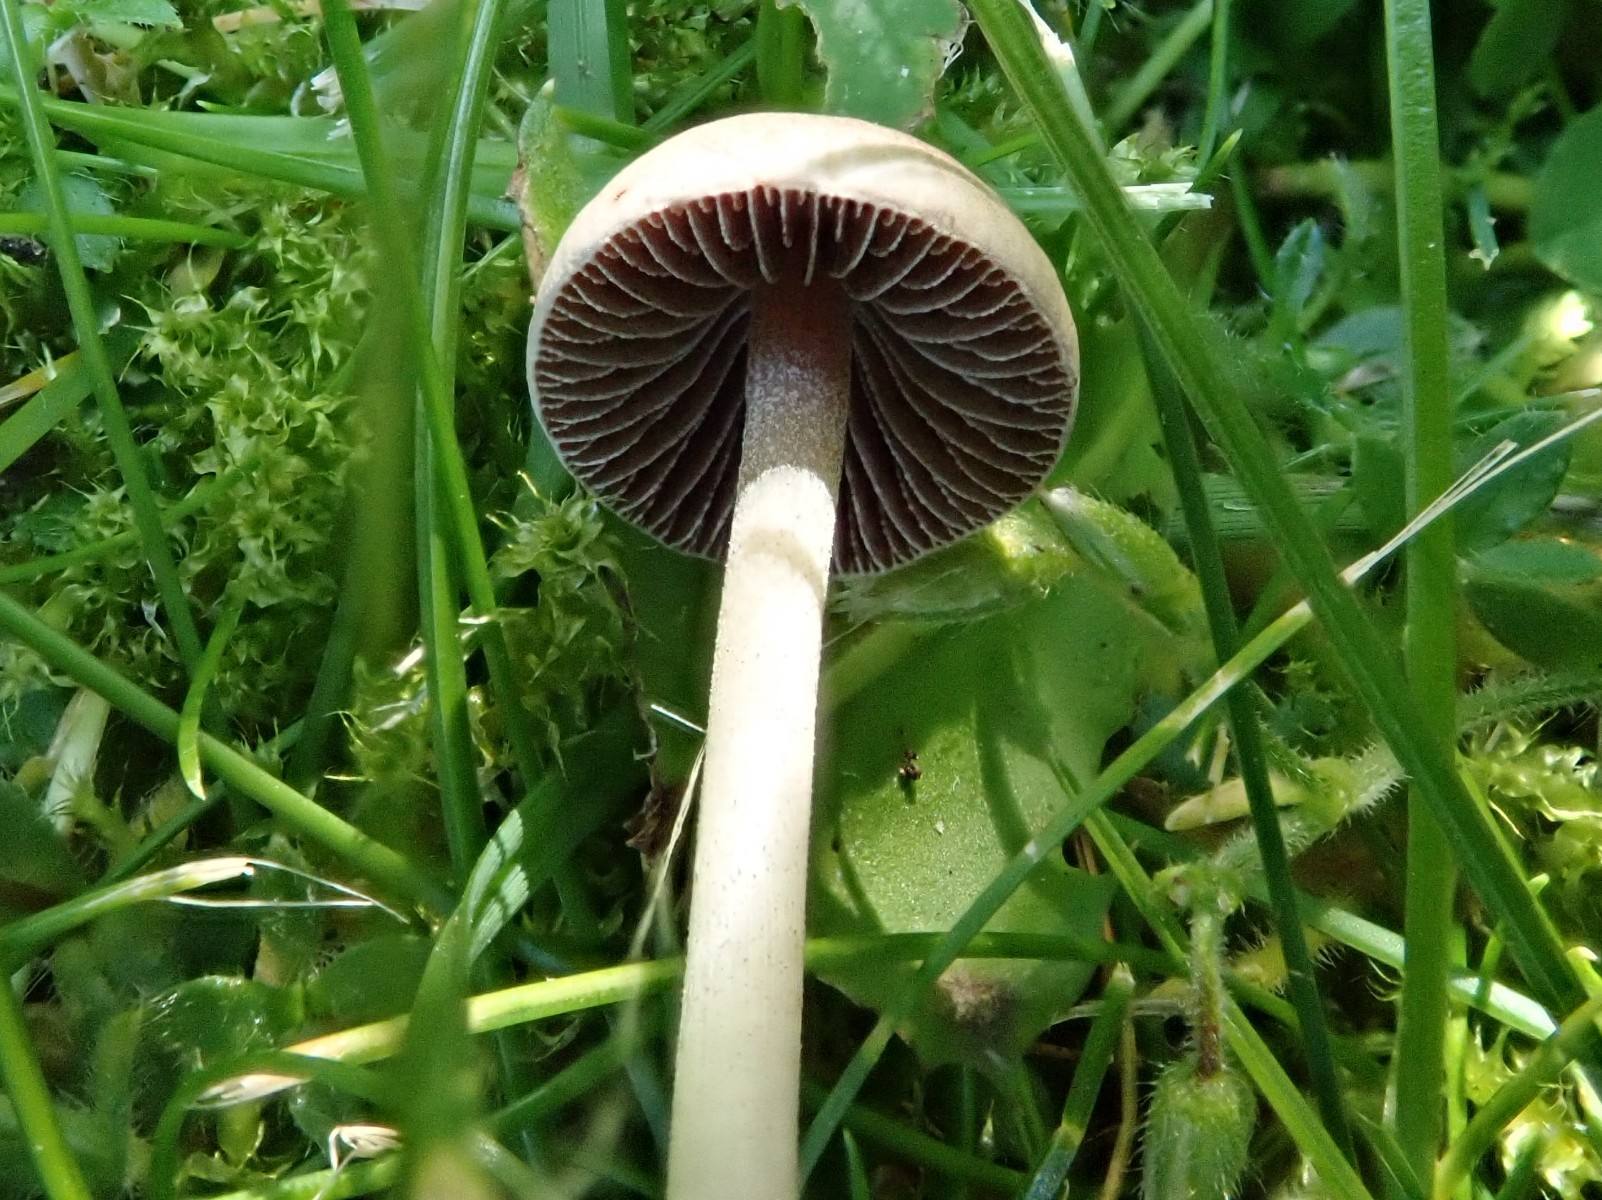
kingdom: Fungi
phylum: Basidiomycota
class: Agaricomycetes
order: Agaricales
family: Bolbitiaceae
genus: Panaeolus
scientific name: Panaeolus
